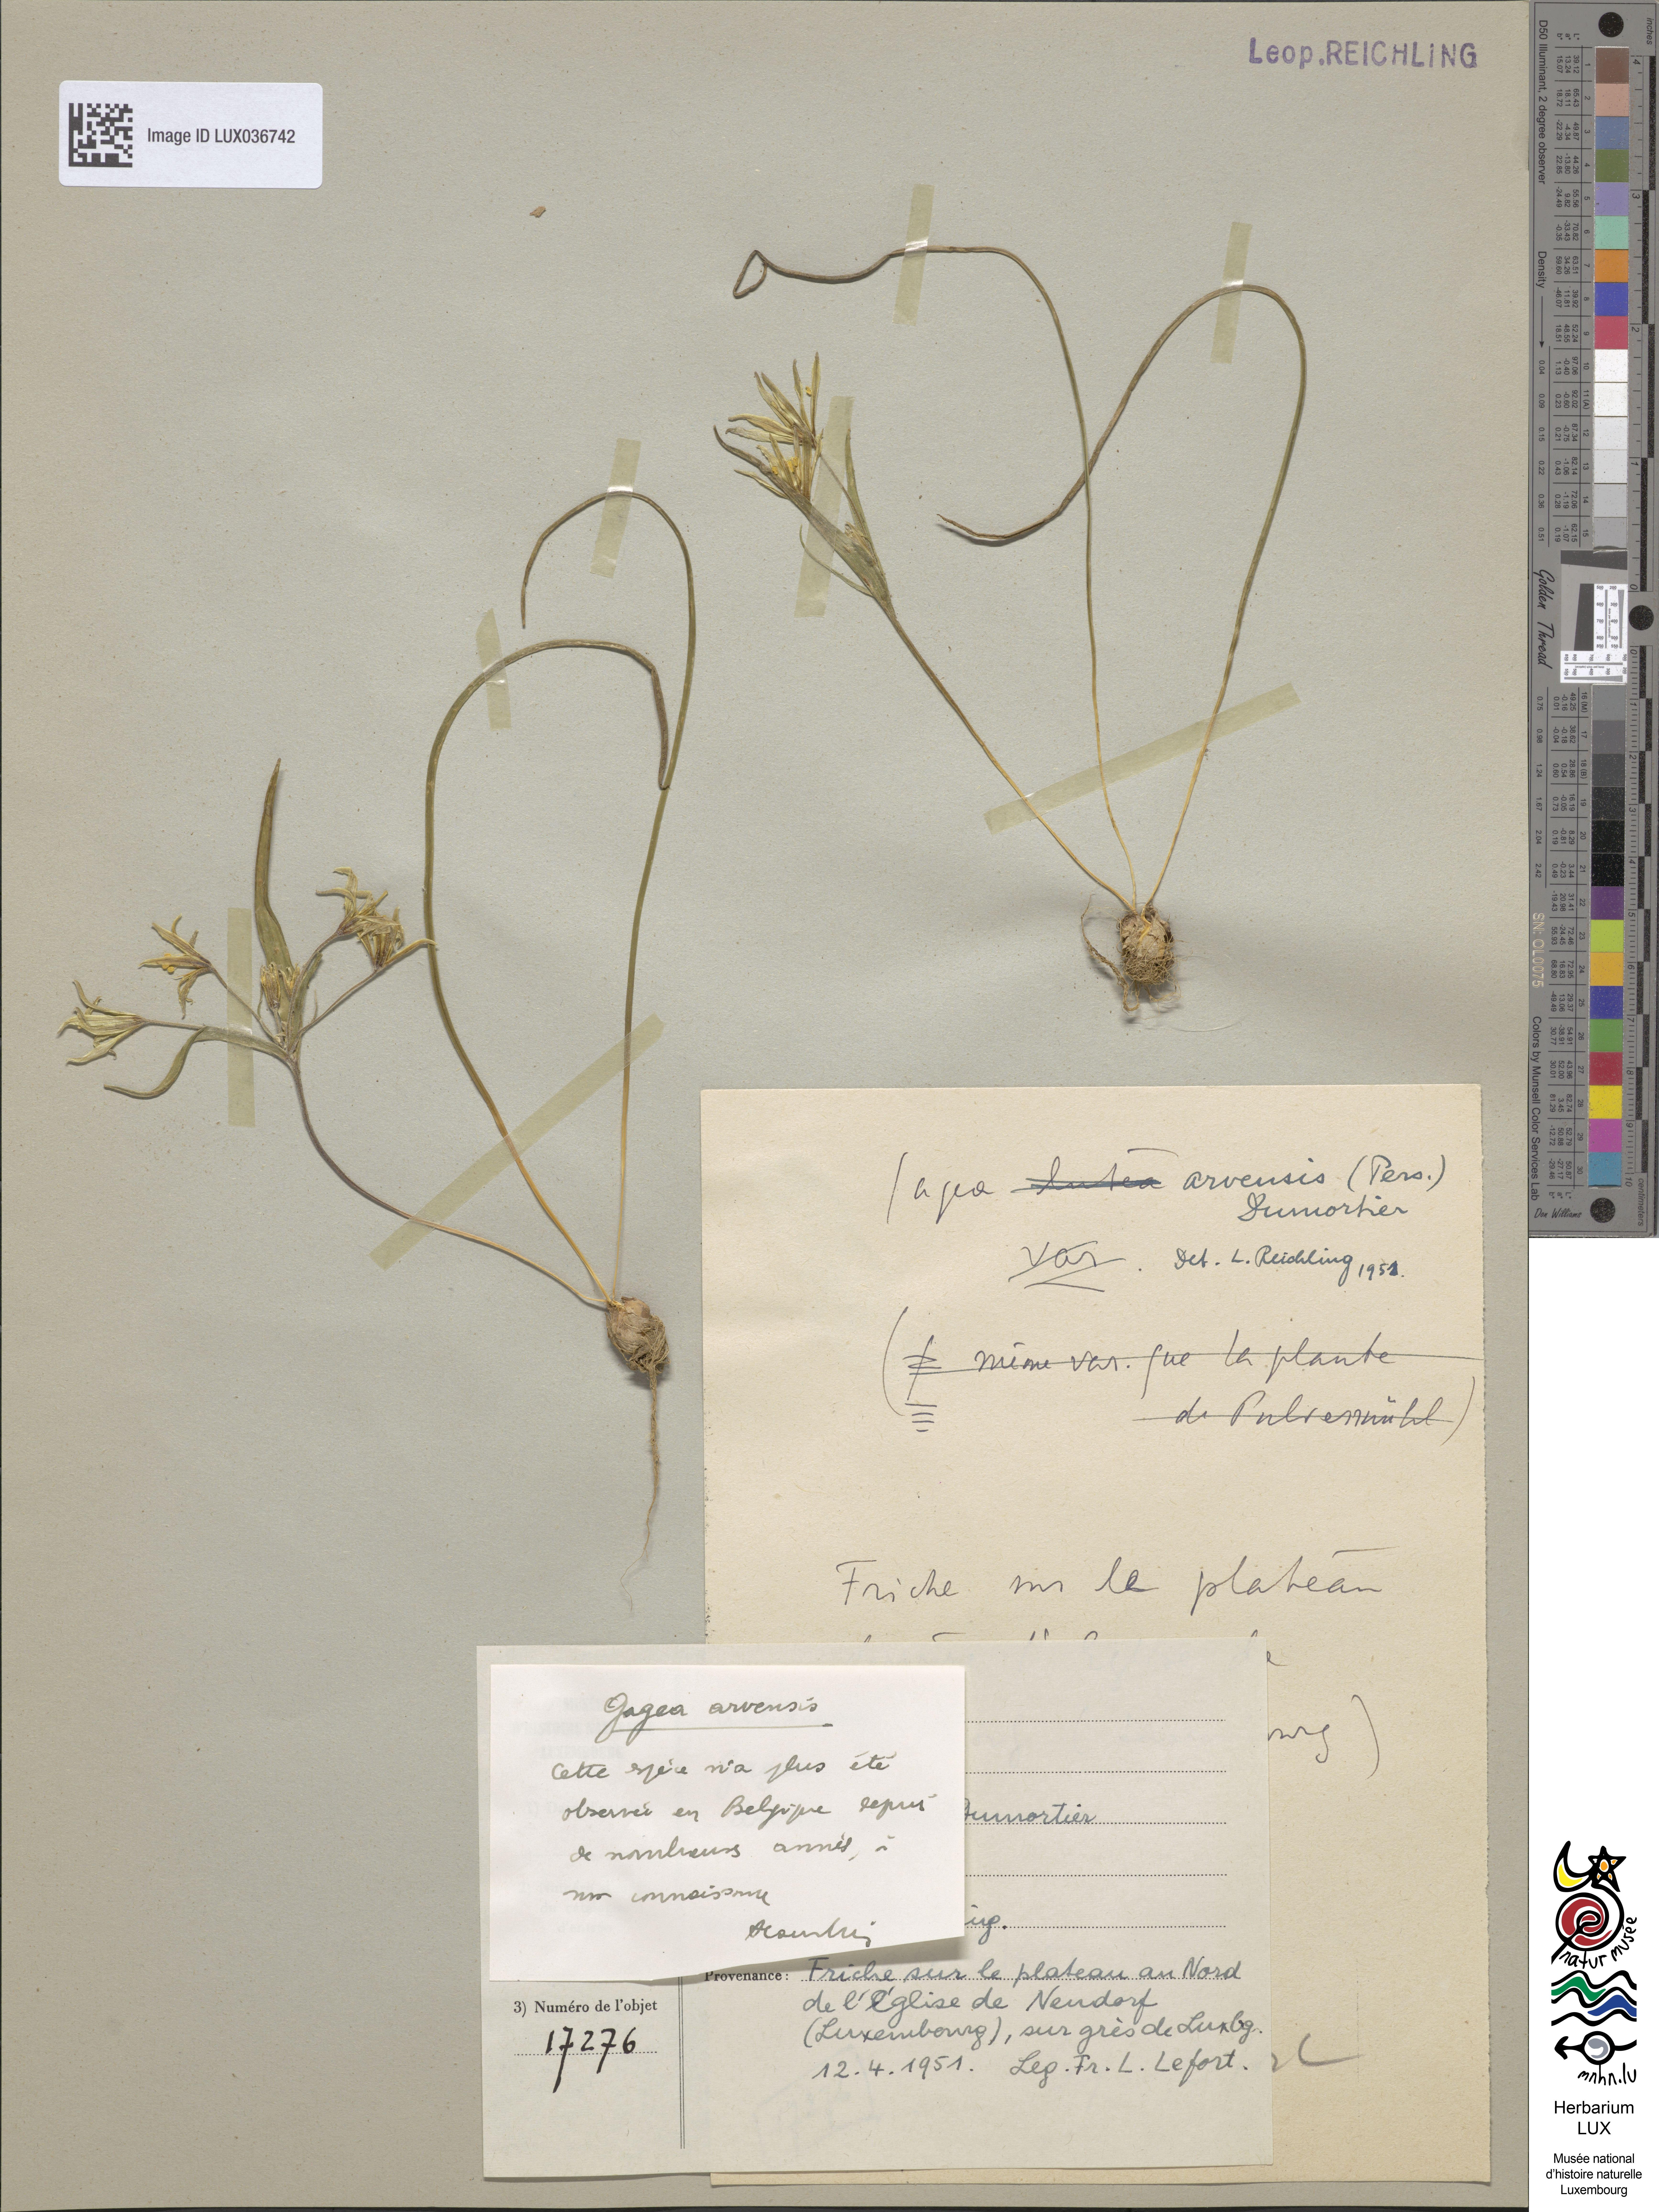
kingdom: Plantae
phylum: Tracheophyta
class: Liliopsida
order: Liliales
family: Liliaceae
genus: Gagea
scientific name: Gagea minima
